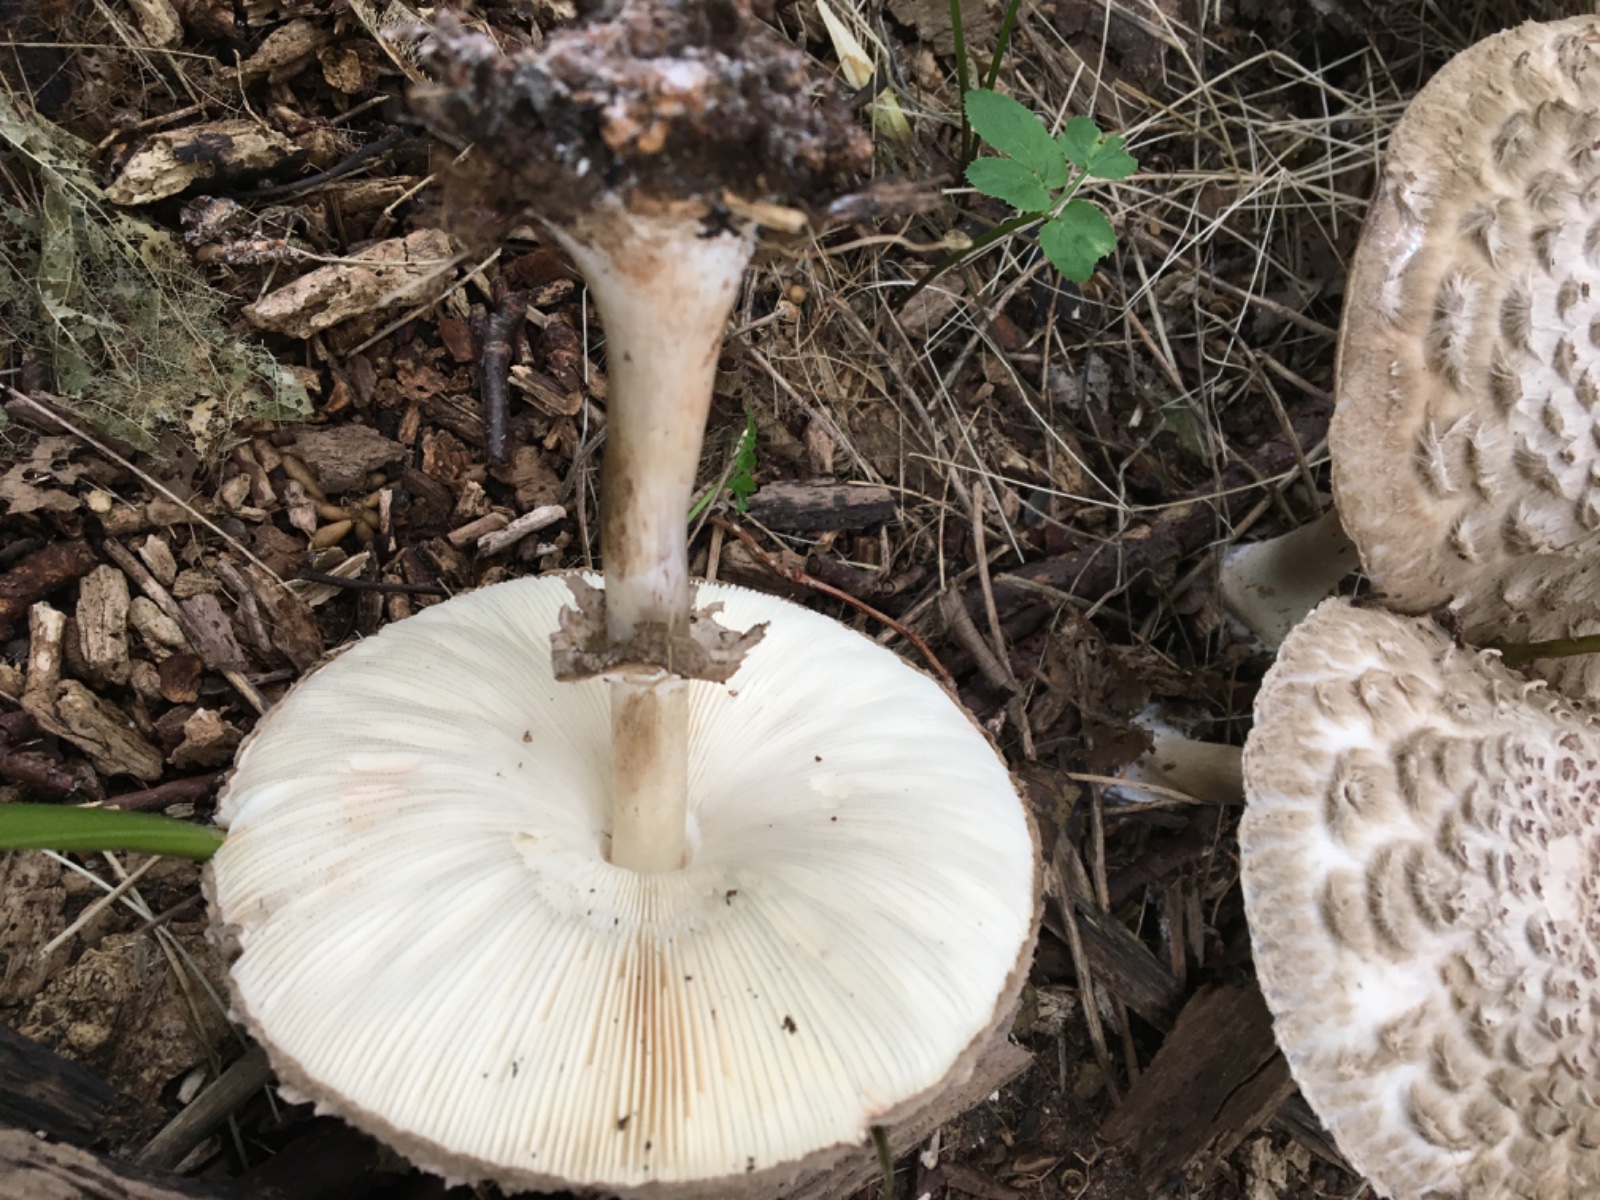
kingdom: Fungi
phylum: Basidiomycota
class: Agaricomycetes
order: Agaricales
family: Agaricaceae
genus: Chlorophyllum
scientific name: Chlorophyllum olivieri
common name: almindelig rabarberhat
